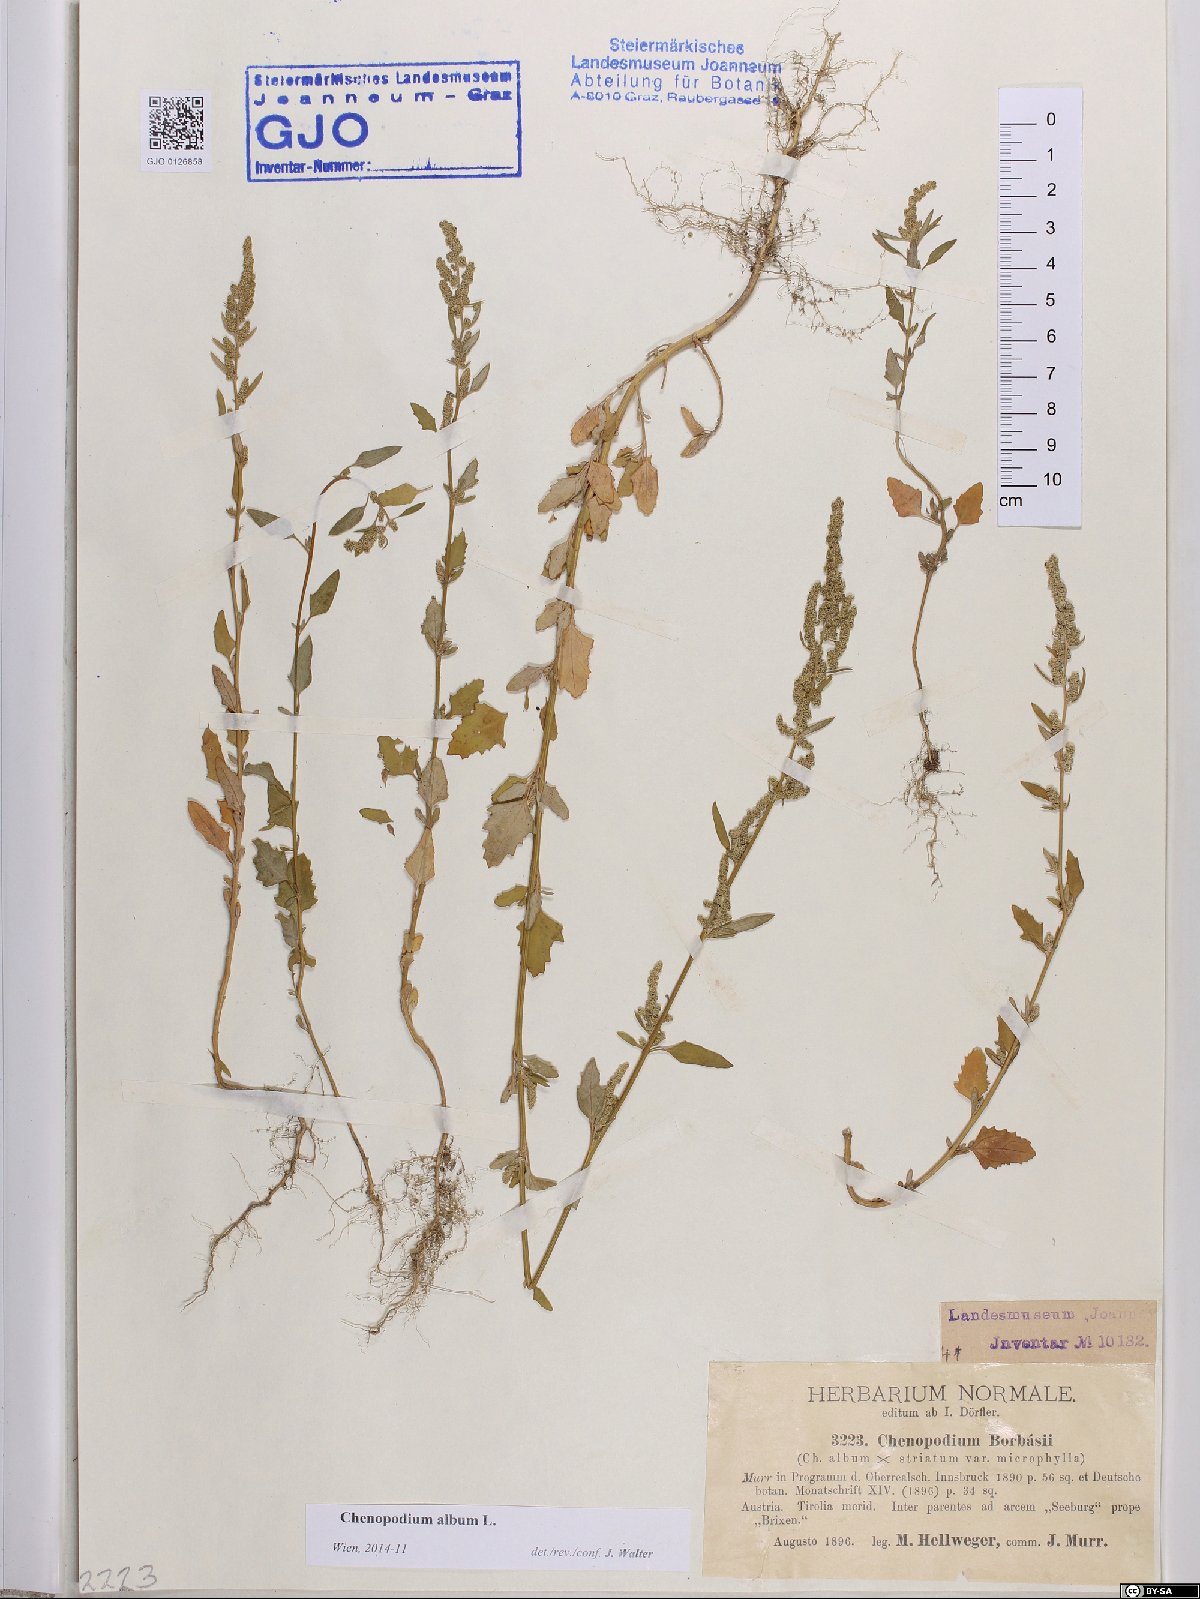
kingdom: Plantae
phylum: Tracheophyta
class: Magnoliopsida
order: Caryophyllales
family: Amaranthaceae
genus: Chenopodium
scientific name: Chenopodium album
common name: Fat-hen
